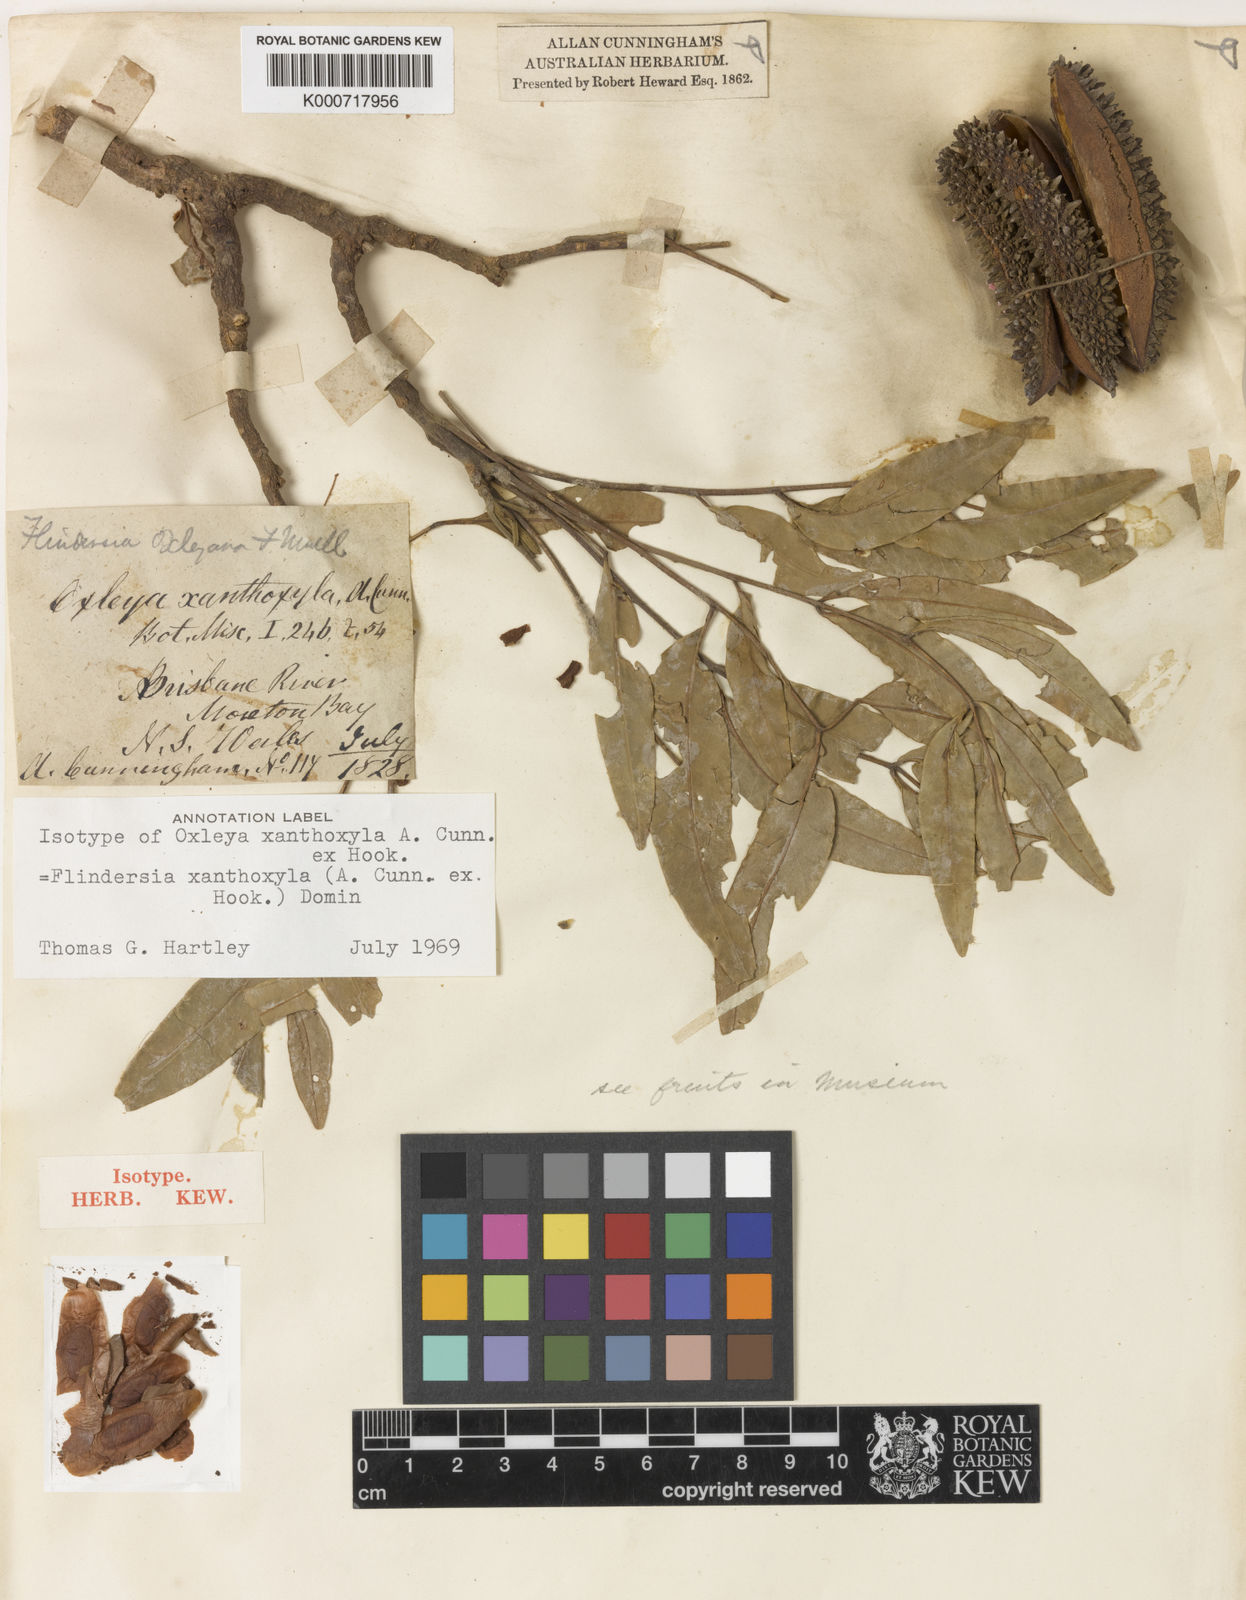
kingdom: Plantae
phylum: Tracheophyta
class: Magnoliopsida
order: Sapindales
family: Rutaceae
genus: Flindersia
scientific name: Flindersia xanthoxyla
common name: Long-jack
